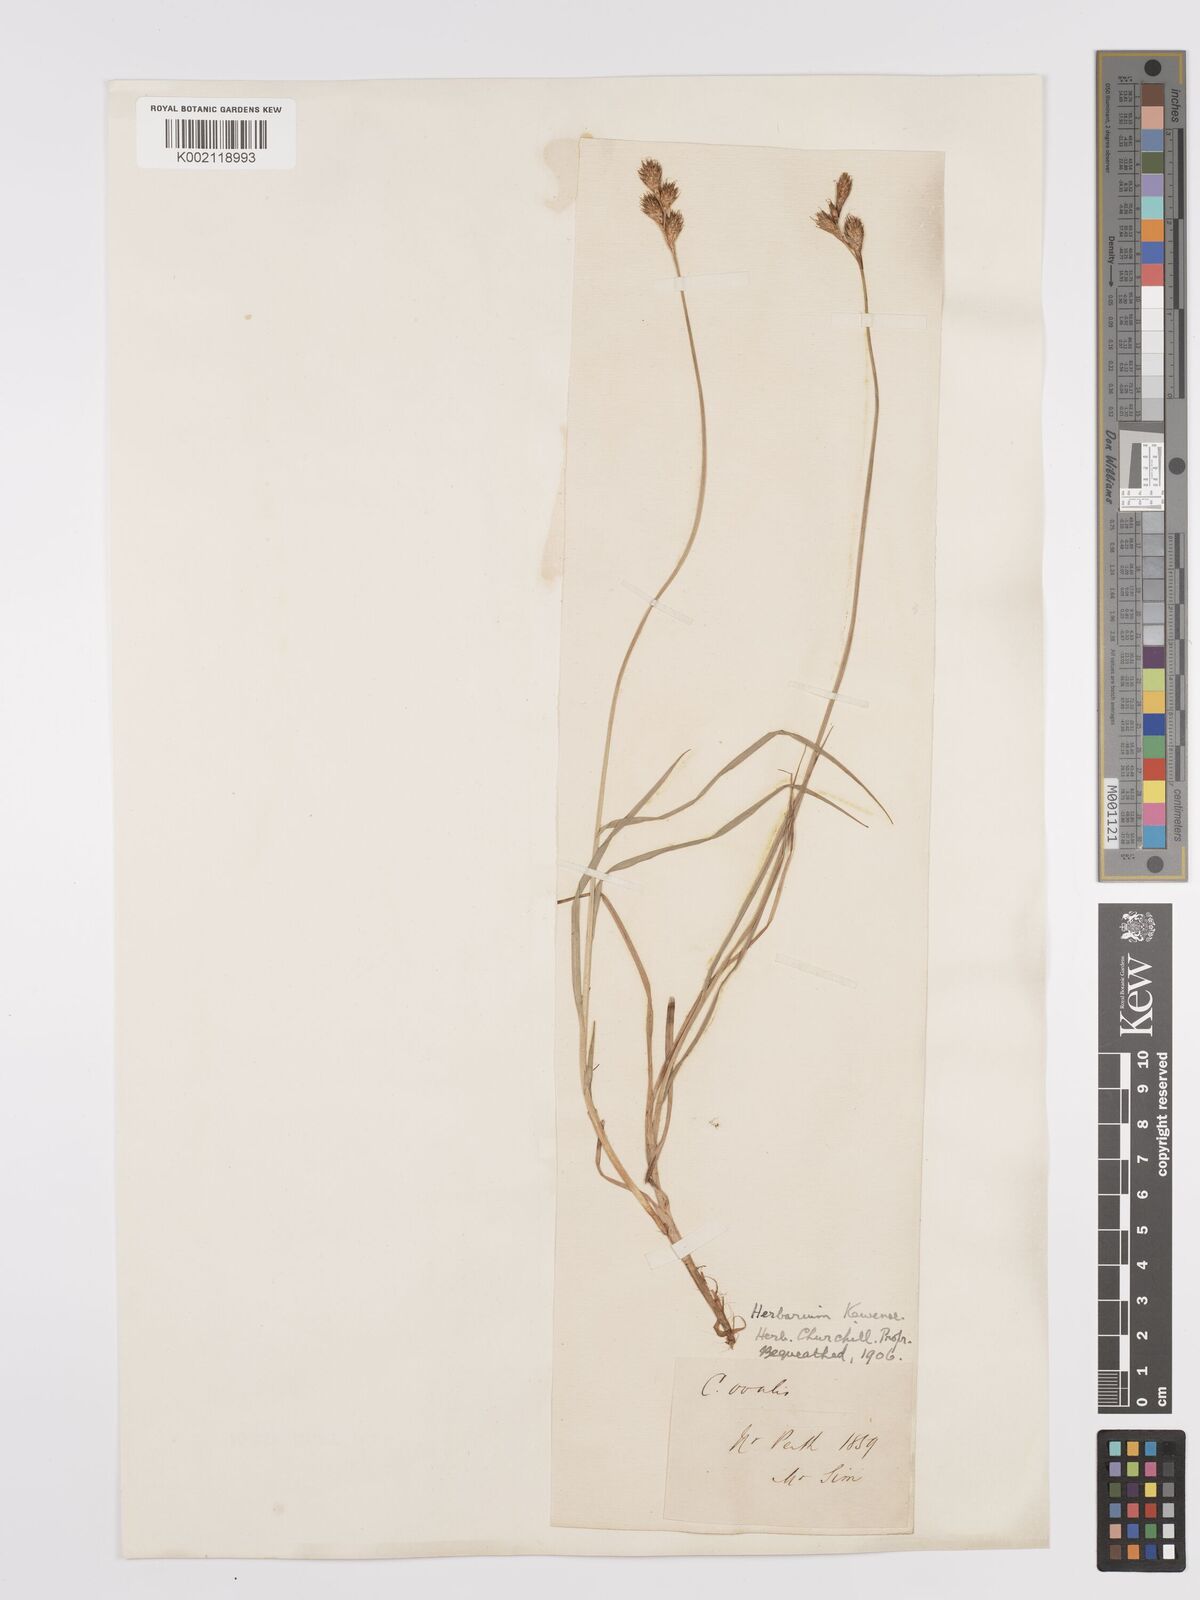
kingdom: Plantae
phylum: Tracheophyta
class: Liliopsida
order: Poales
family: Cyperaceae
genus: Carex
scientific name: Carex leporina
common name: Oval sedge
